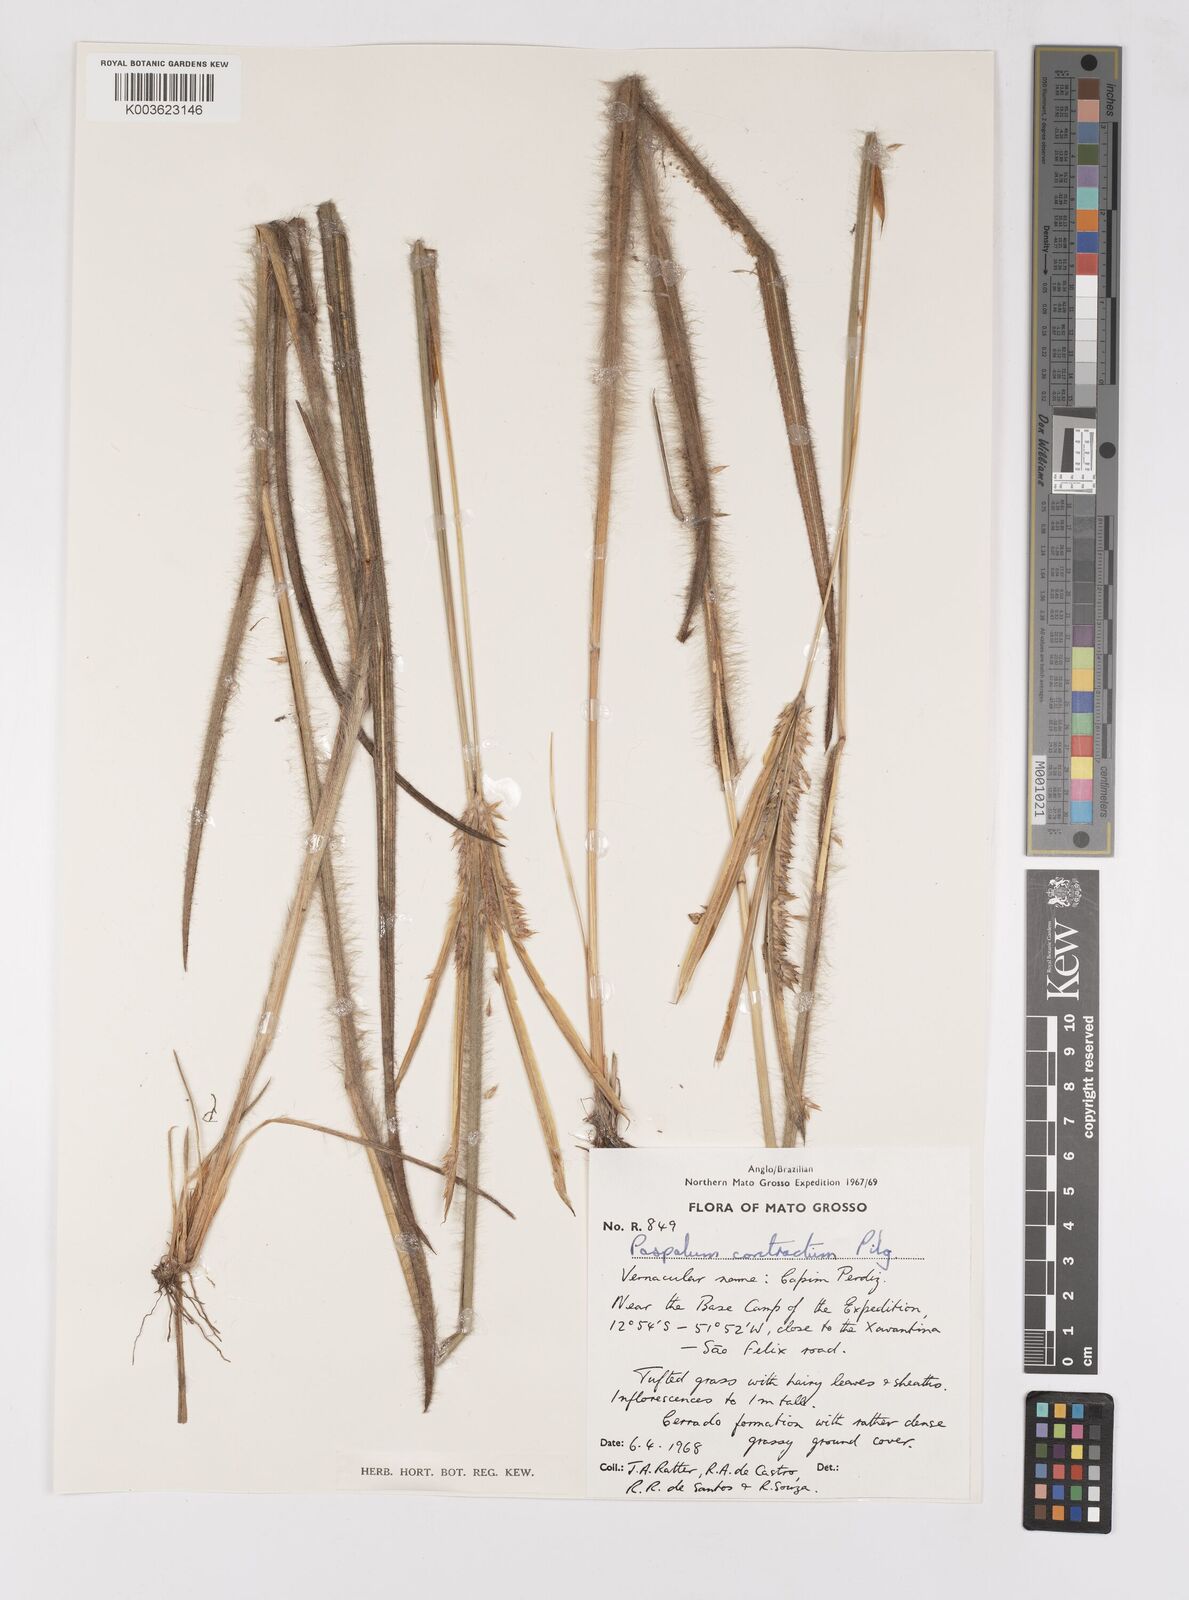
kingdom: Plantae
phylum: Tracheophyta
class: Liliopsida
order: Poales
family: Poaceae
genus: Paspalum
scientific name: Paspalum lanciflorum
